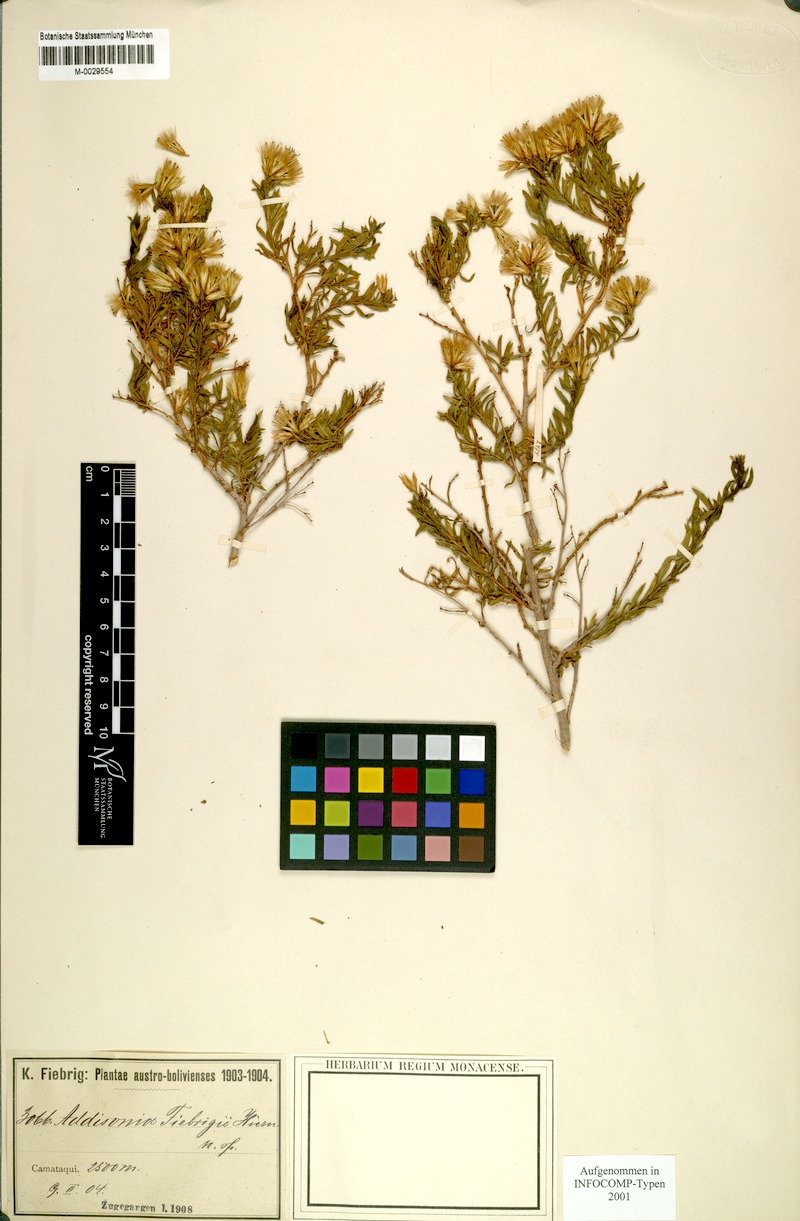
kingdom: Plantae
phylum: Tracheophyta
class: Magnoliopsida
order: Asterales
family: Asteraceae
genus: Helogyne
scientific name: Helogyne Addisonia fiebrigii
